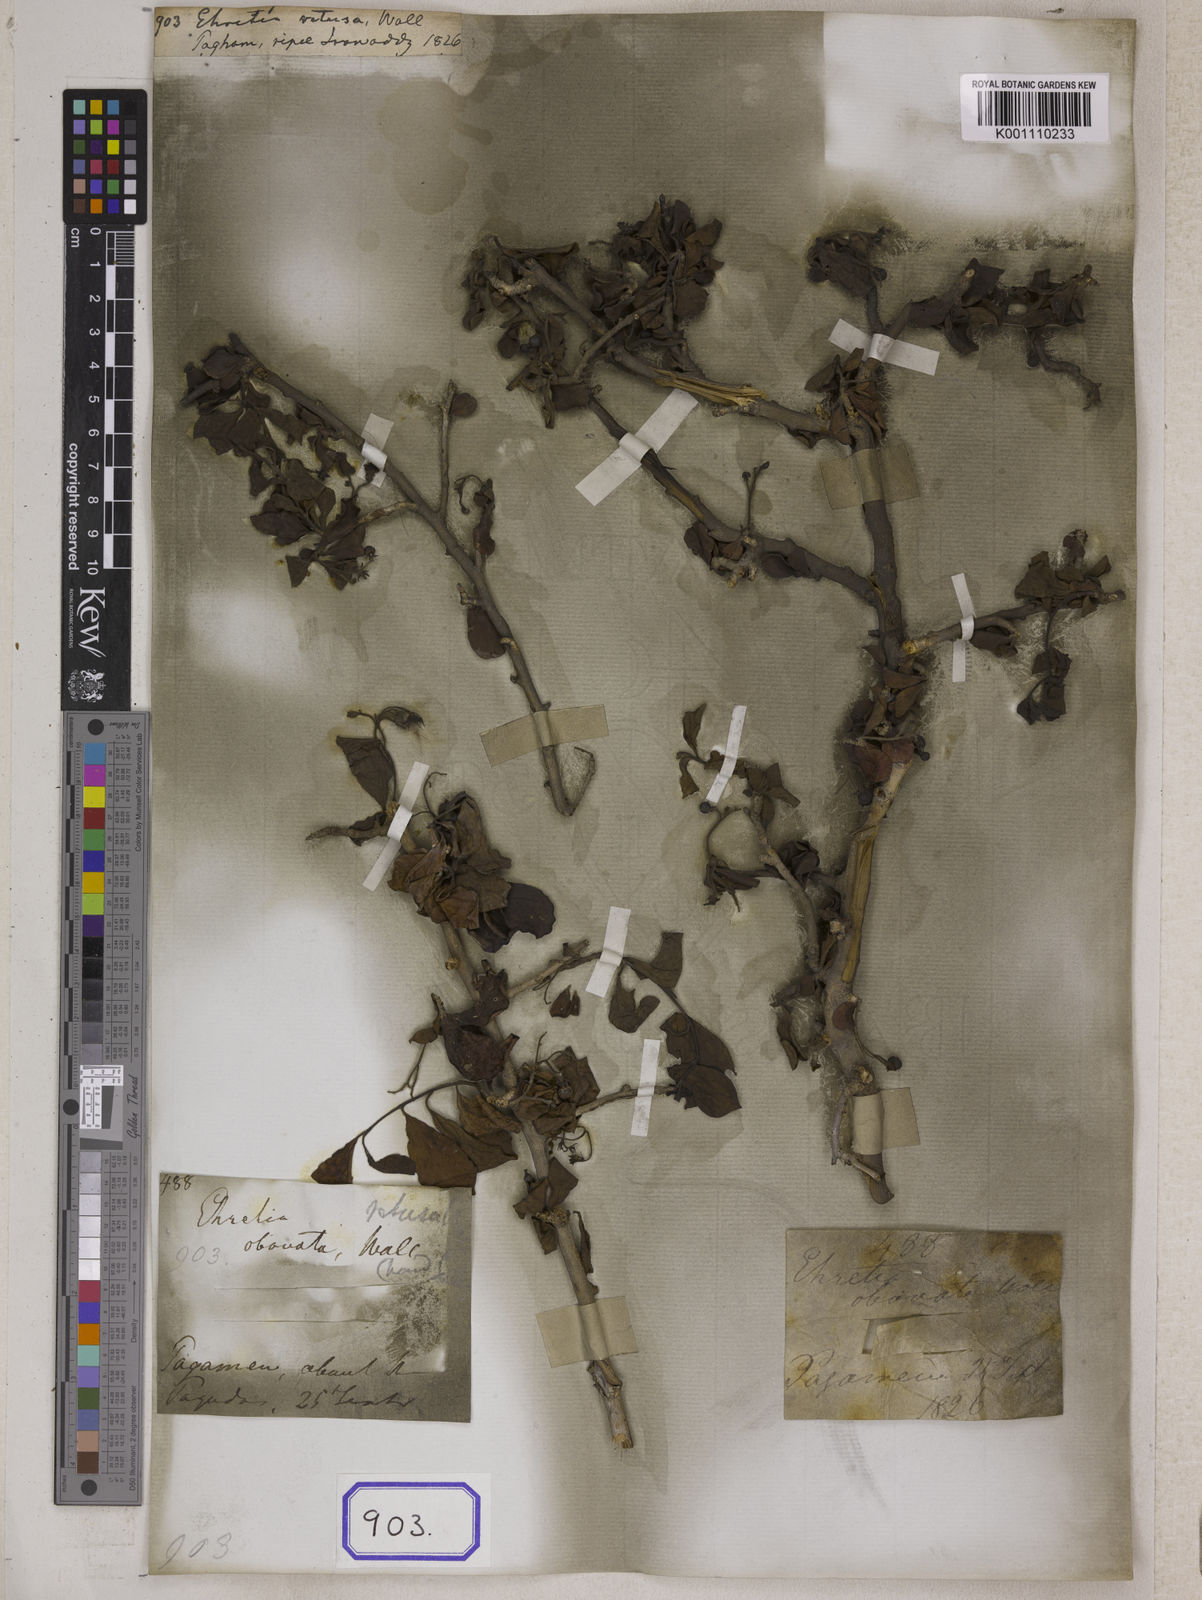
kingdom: Plantae
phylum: Tracheophyta
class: Magnoliopsida
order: Boraginales
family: Ehretiaceae
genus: Ehretia
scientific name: Ehretia
